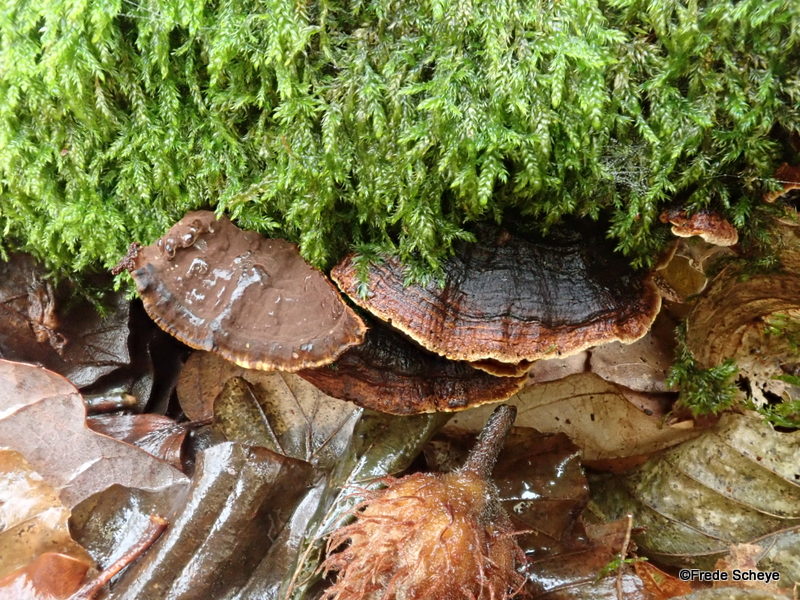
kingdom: Fungi
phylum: Basidiomycota
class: Agaricomycetes
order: Hymenochaetales
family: Hymenochaetaceae
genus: Hymenochaete
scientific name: Hymenochaete rubiginosa
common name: stiv ruslædersvamp
